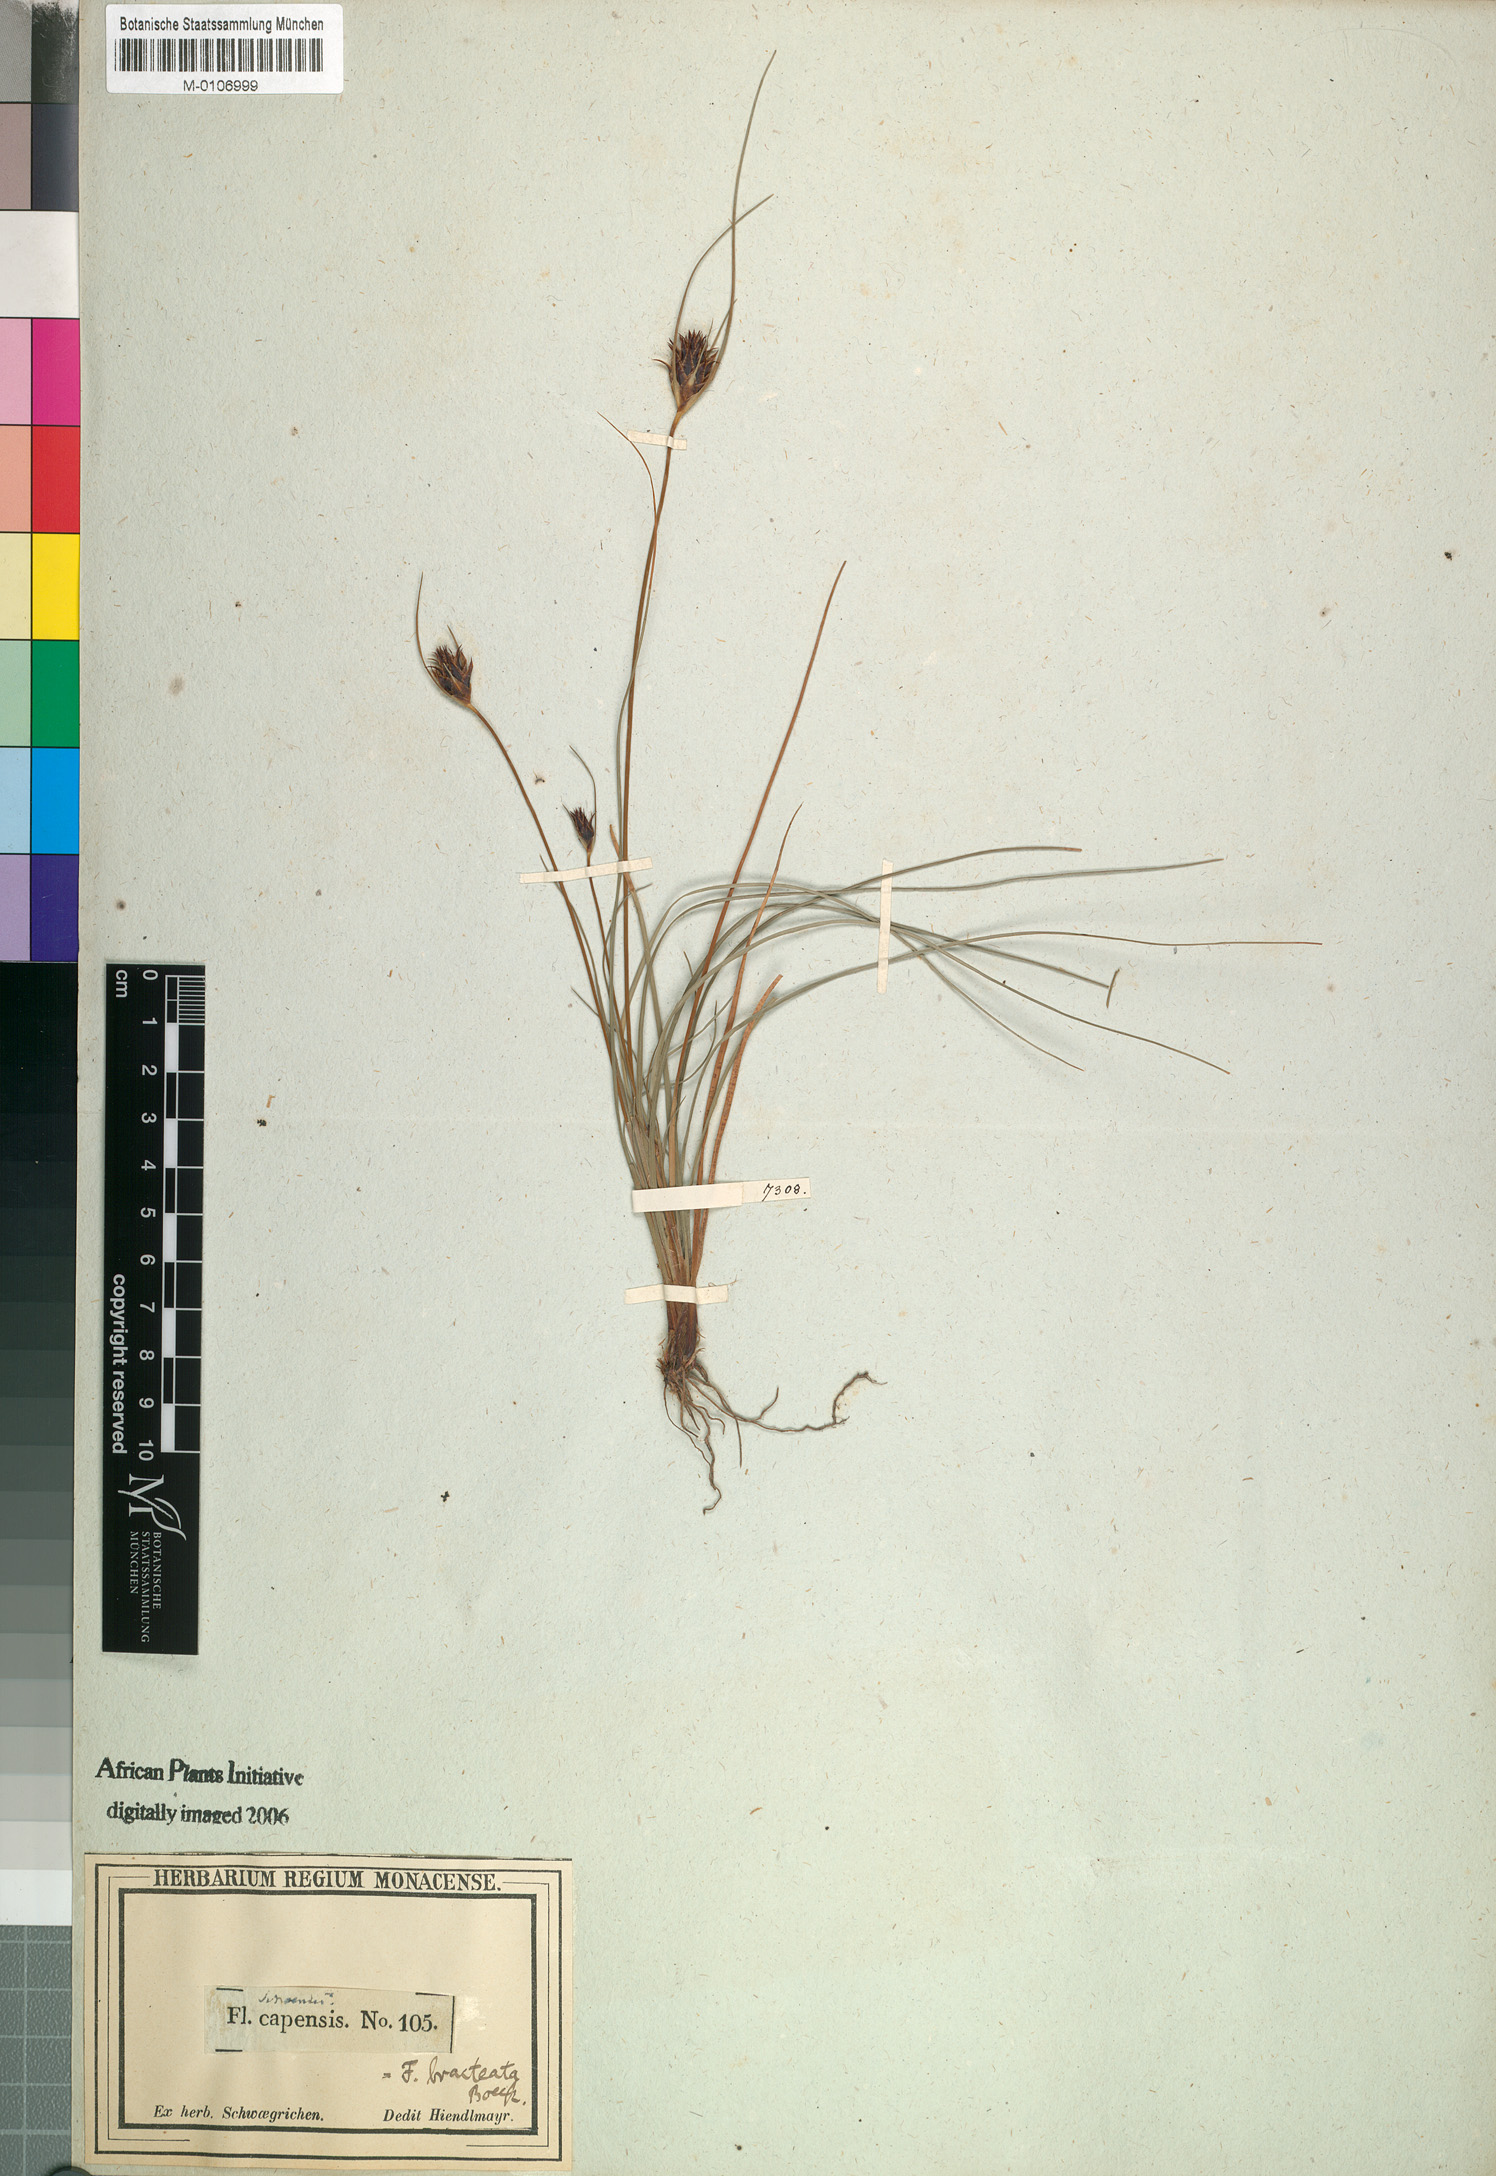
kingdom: Plantae
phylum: Tracheophyta
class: Liliopsida
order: Poales
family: Cyperaceae
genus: Ficinia
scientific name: Ficinia nigrescens
